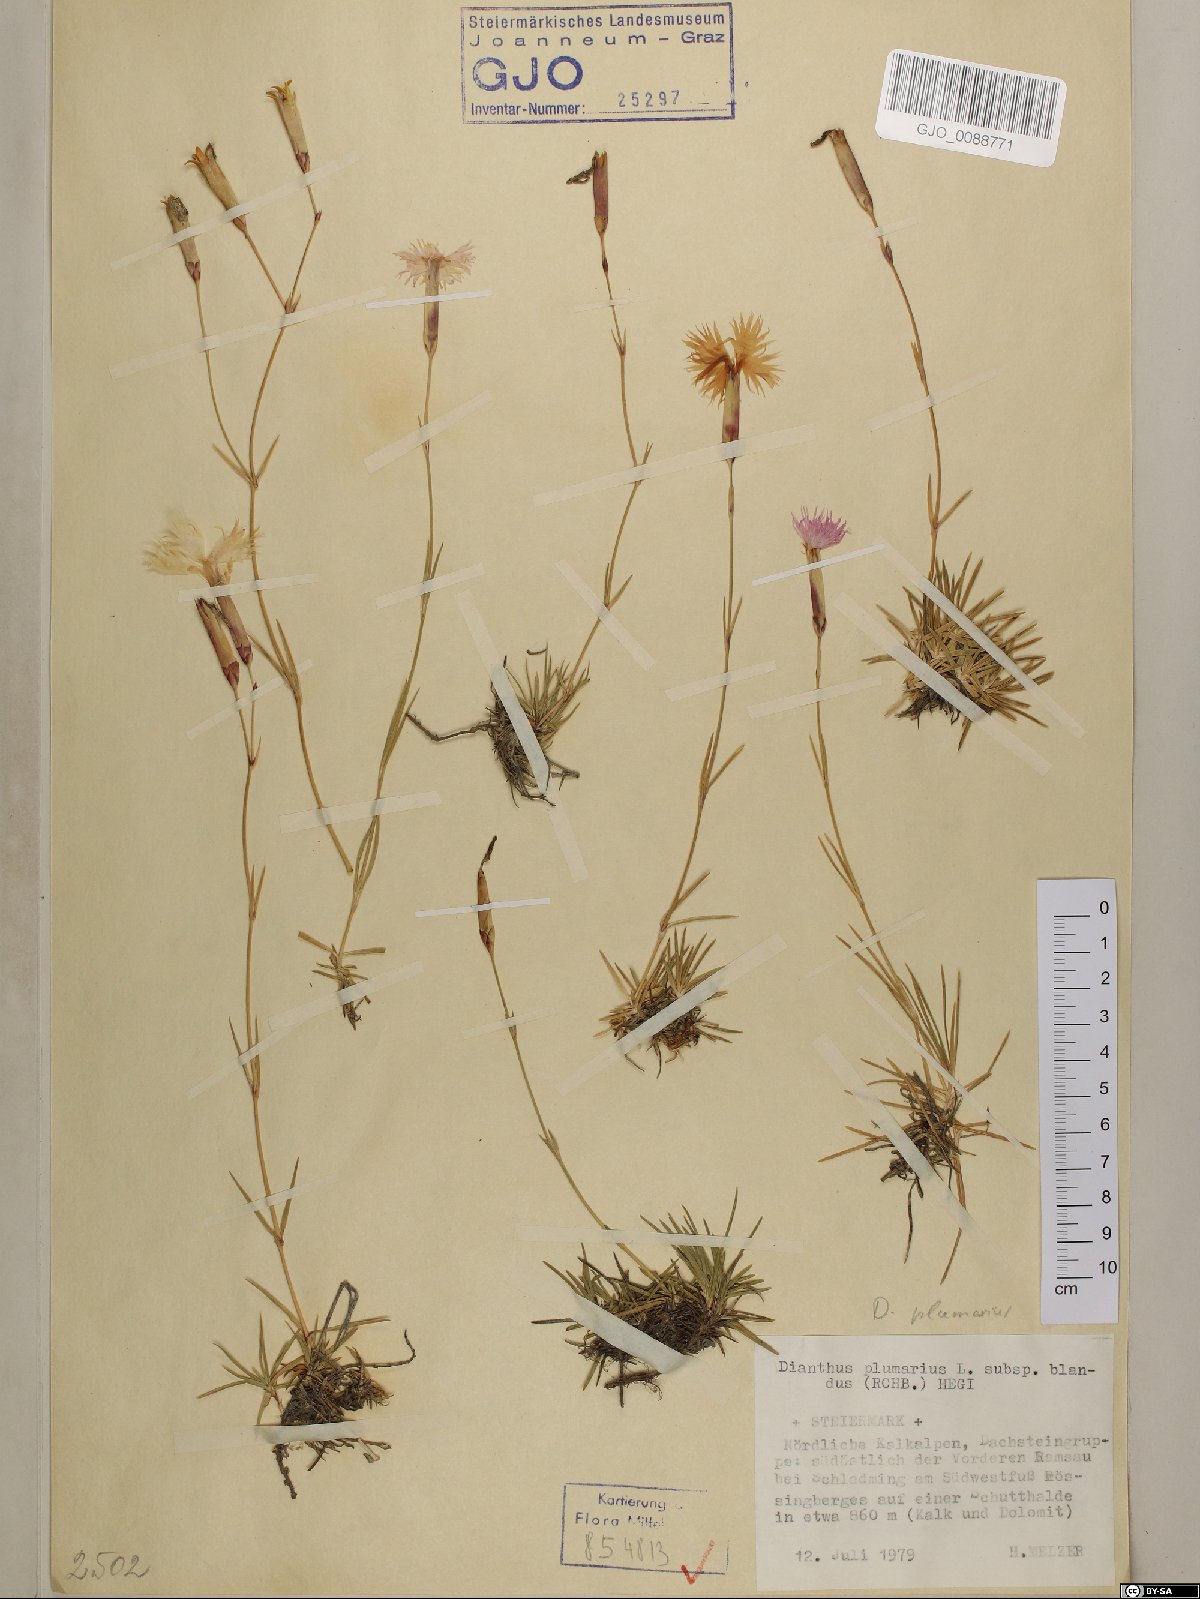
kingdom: Plantae
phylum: Tracheophyta
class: Magnoliopsida
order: Caryophyllales
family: Caryophyllaceae
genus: Dianthus
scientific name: Dianthus plumarius
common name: Pink
